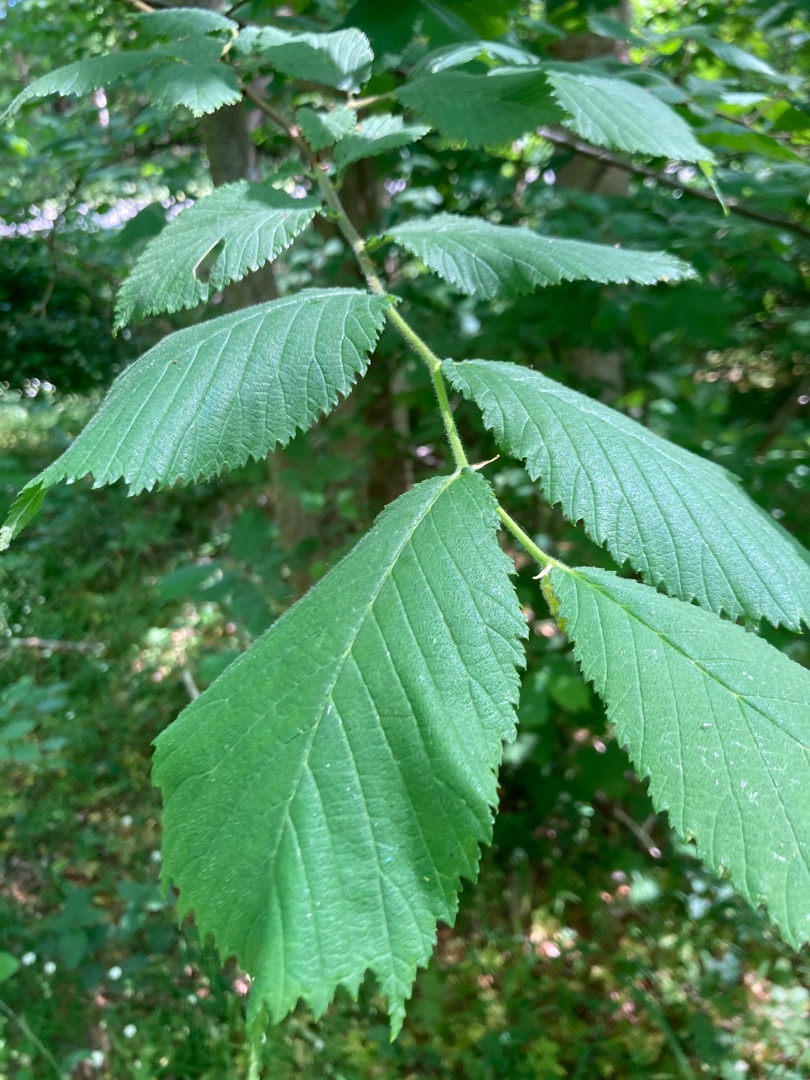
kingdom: Plantae
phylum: Tracheophyta
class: Magnoliopsida
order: Rosales
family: Ulmaceae
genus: Ulmus
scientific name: Ulmus glabra
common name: Skov-elm/storbladet elm
